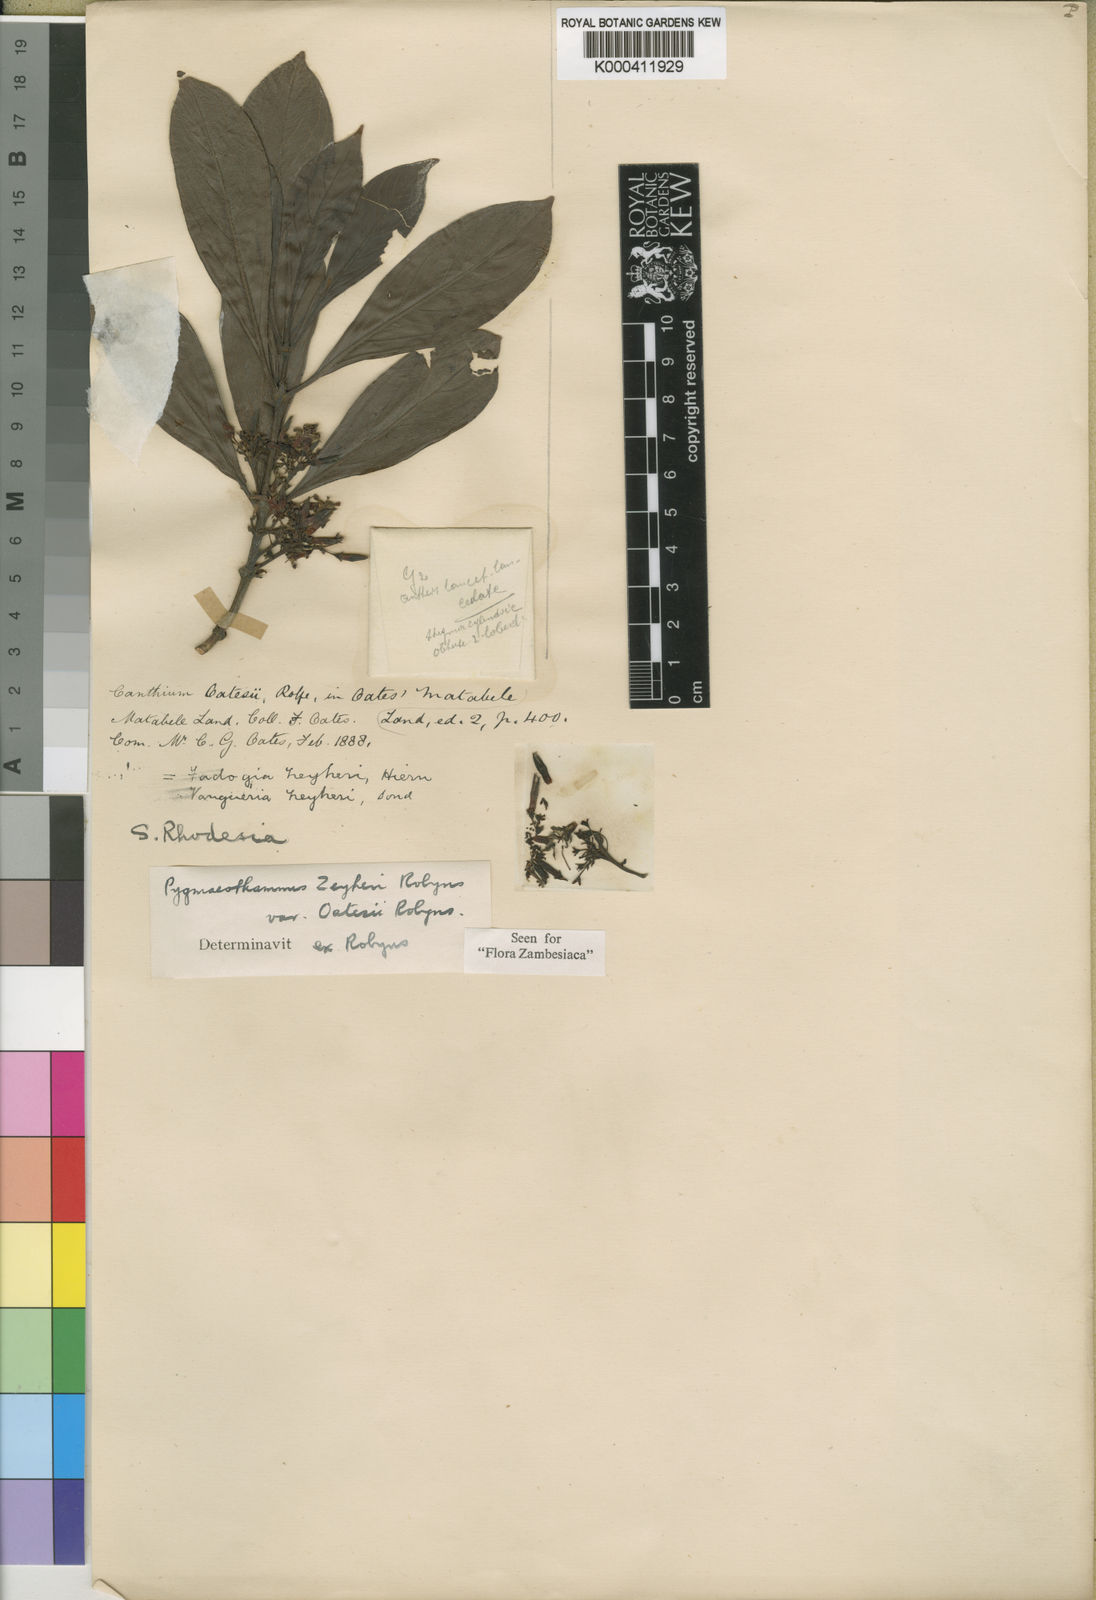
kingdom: Plantae
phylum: Tracheophyta
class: Magnoliopsida
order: Gentianales
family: Rubiaceae
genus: Pygmaeothamnus
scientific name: Pygmaeothamnus zeyheri
